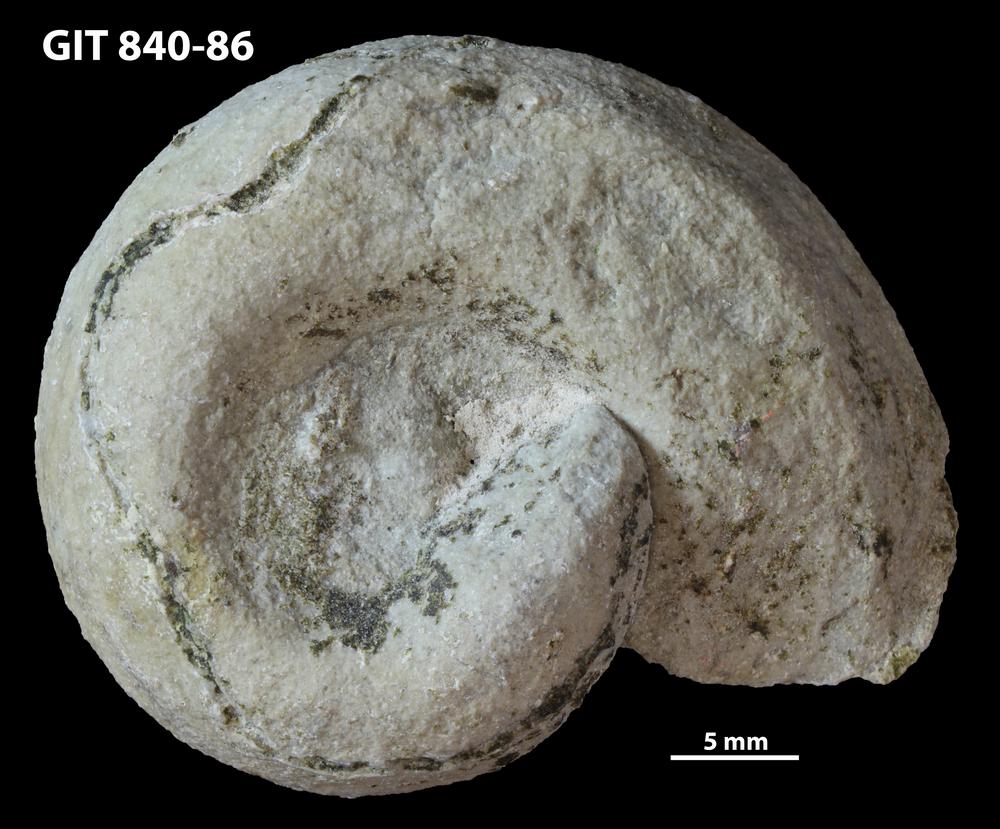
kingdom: Animalia
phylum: Mollusca
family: Macluritidae
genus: Maclurites
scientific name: Maclurites Maclurea neritoides
